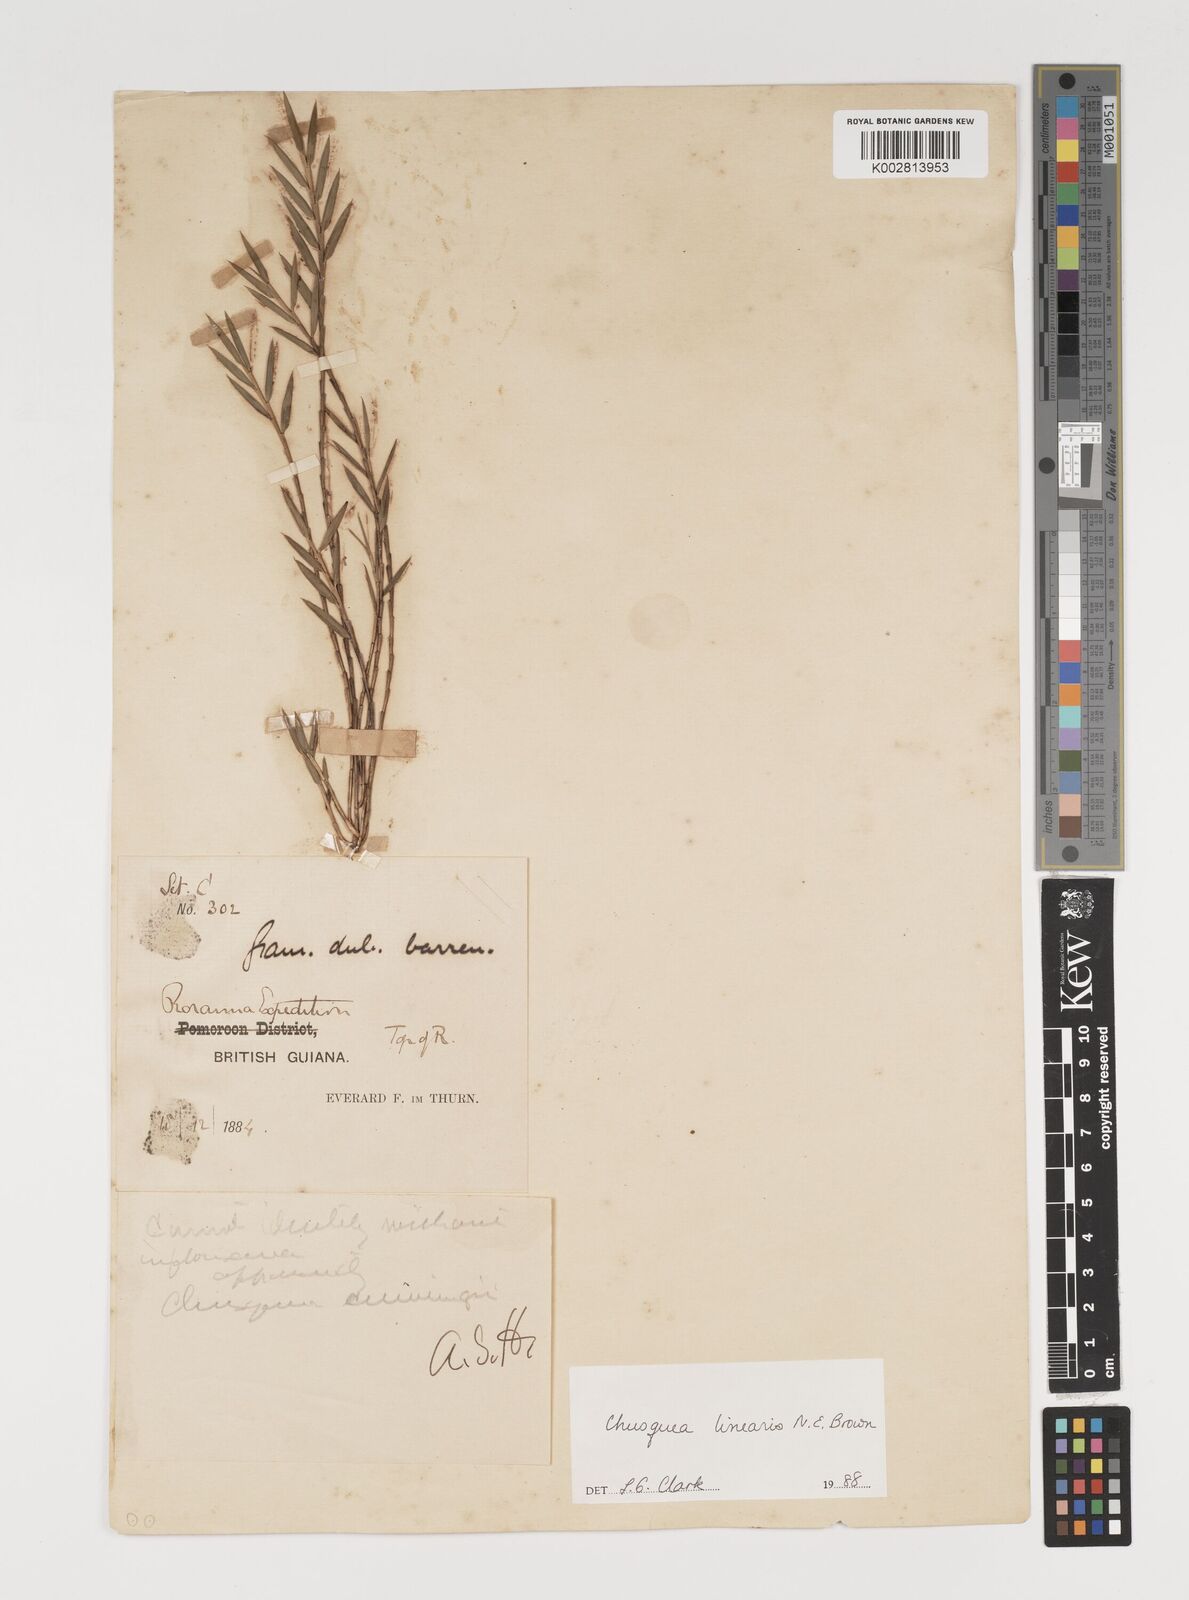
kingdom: Plantae
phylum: Tracheophyta
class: Liliopsida
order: Poales
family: Poaceae
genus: Chusquea
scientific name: Chusquea linearis
